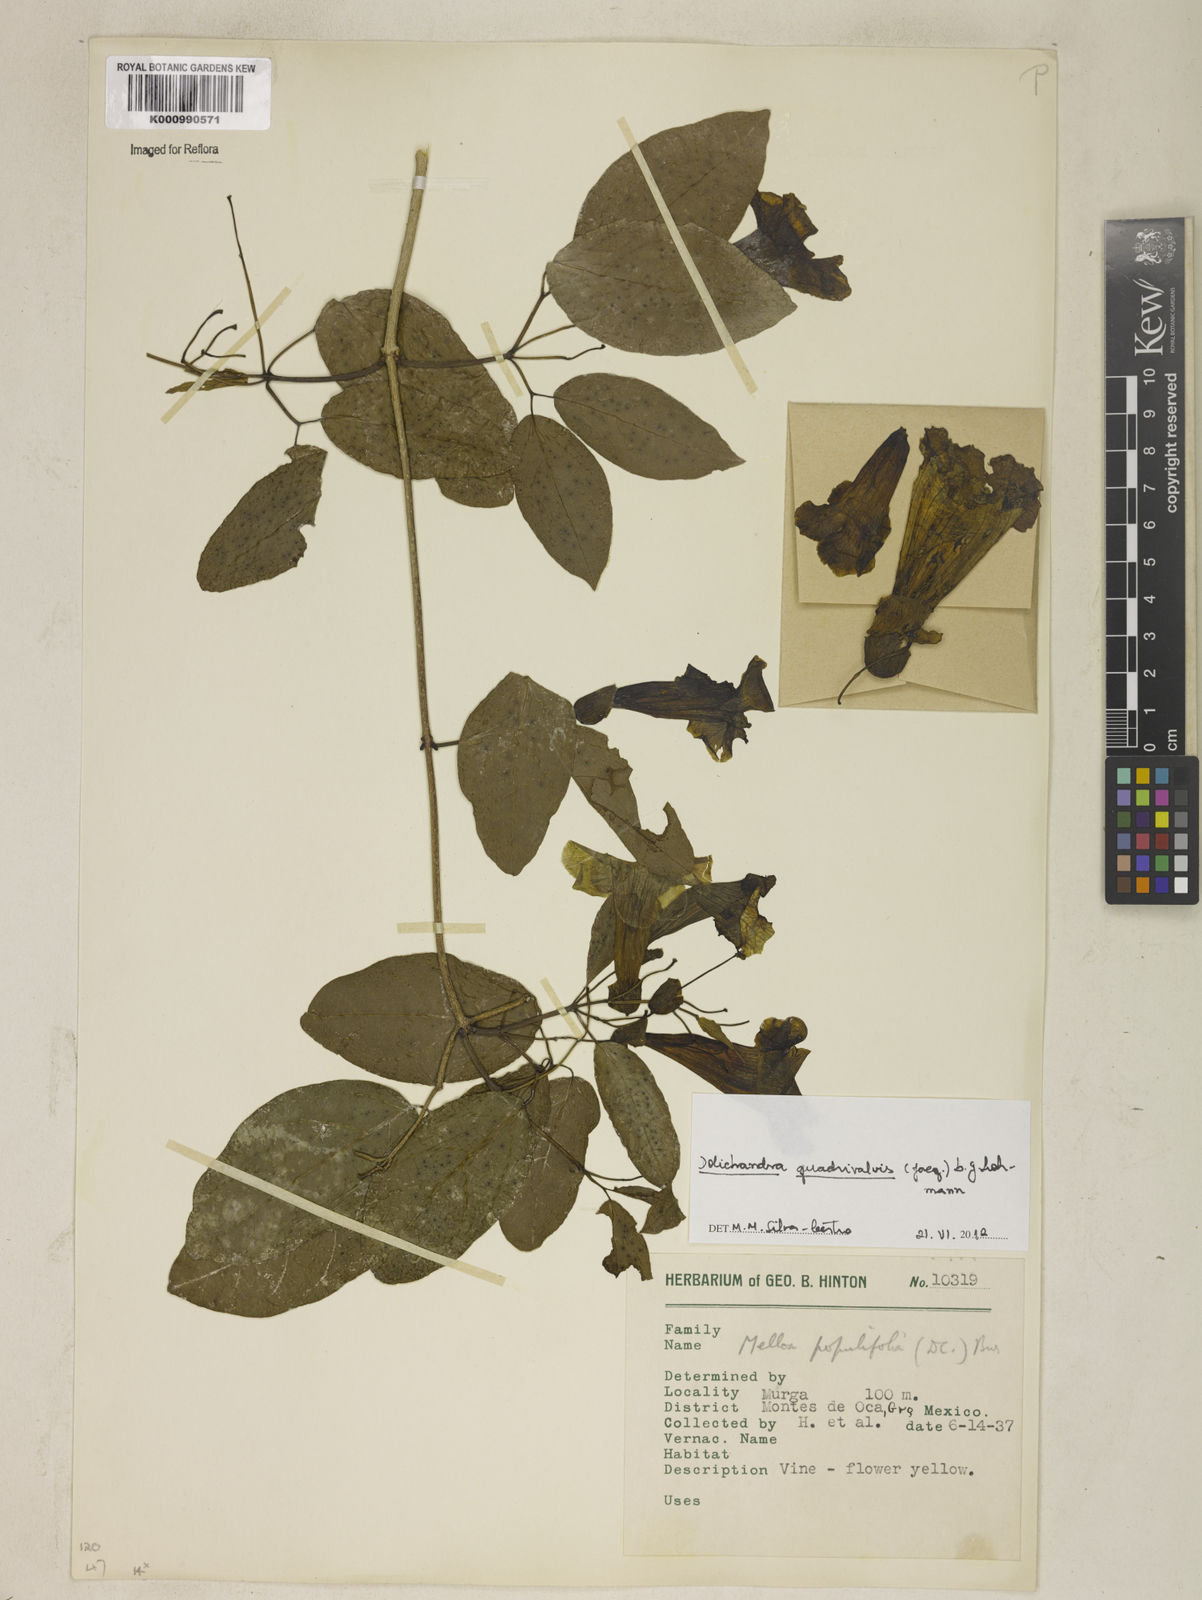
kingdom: Plantae
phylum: Tracheophyta
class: Magnoliopsida
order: Lamiales
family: Bignoniaceae
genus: Fridericia
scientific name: Fridericia
